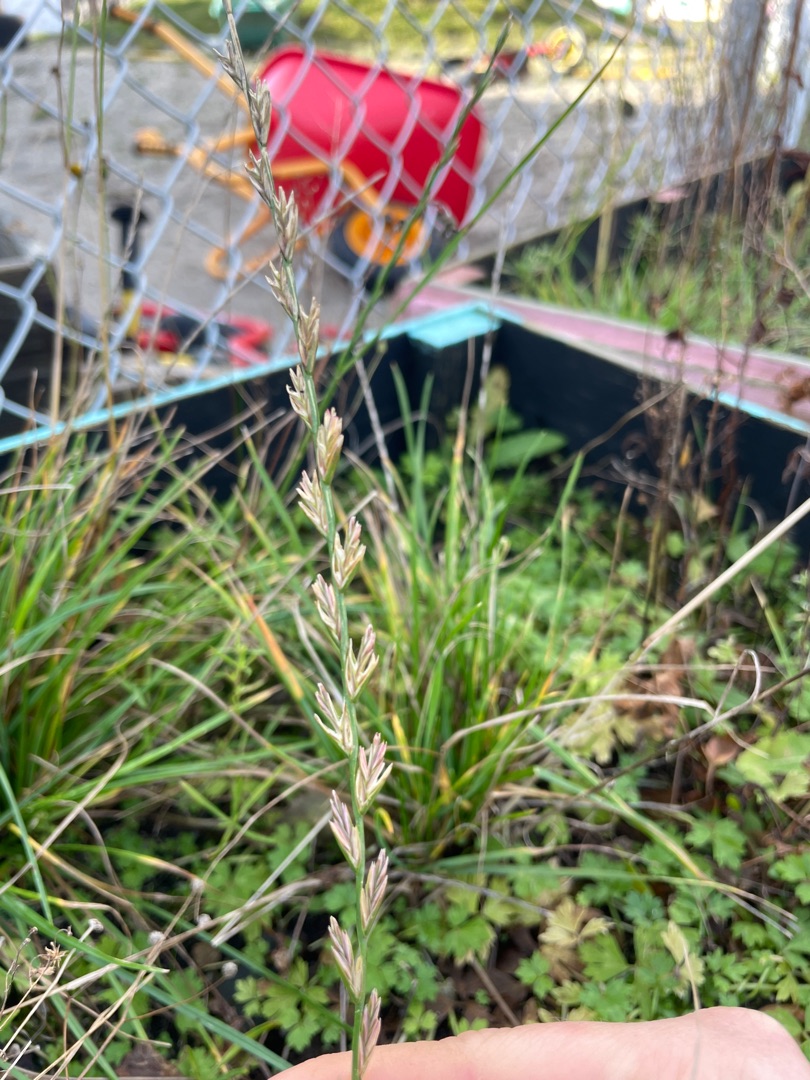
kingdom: Plantae
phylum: Tracheophyta
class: Liliopsida
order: Poales
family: Poaceae
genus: Lolium
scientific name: Lolium perenne
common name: Almindelig rajgræs
